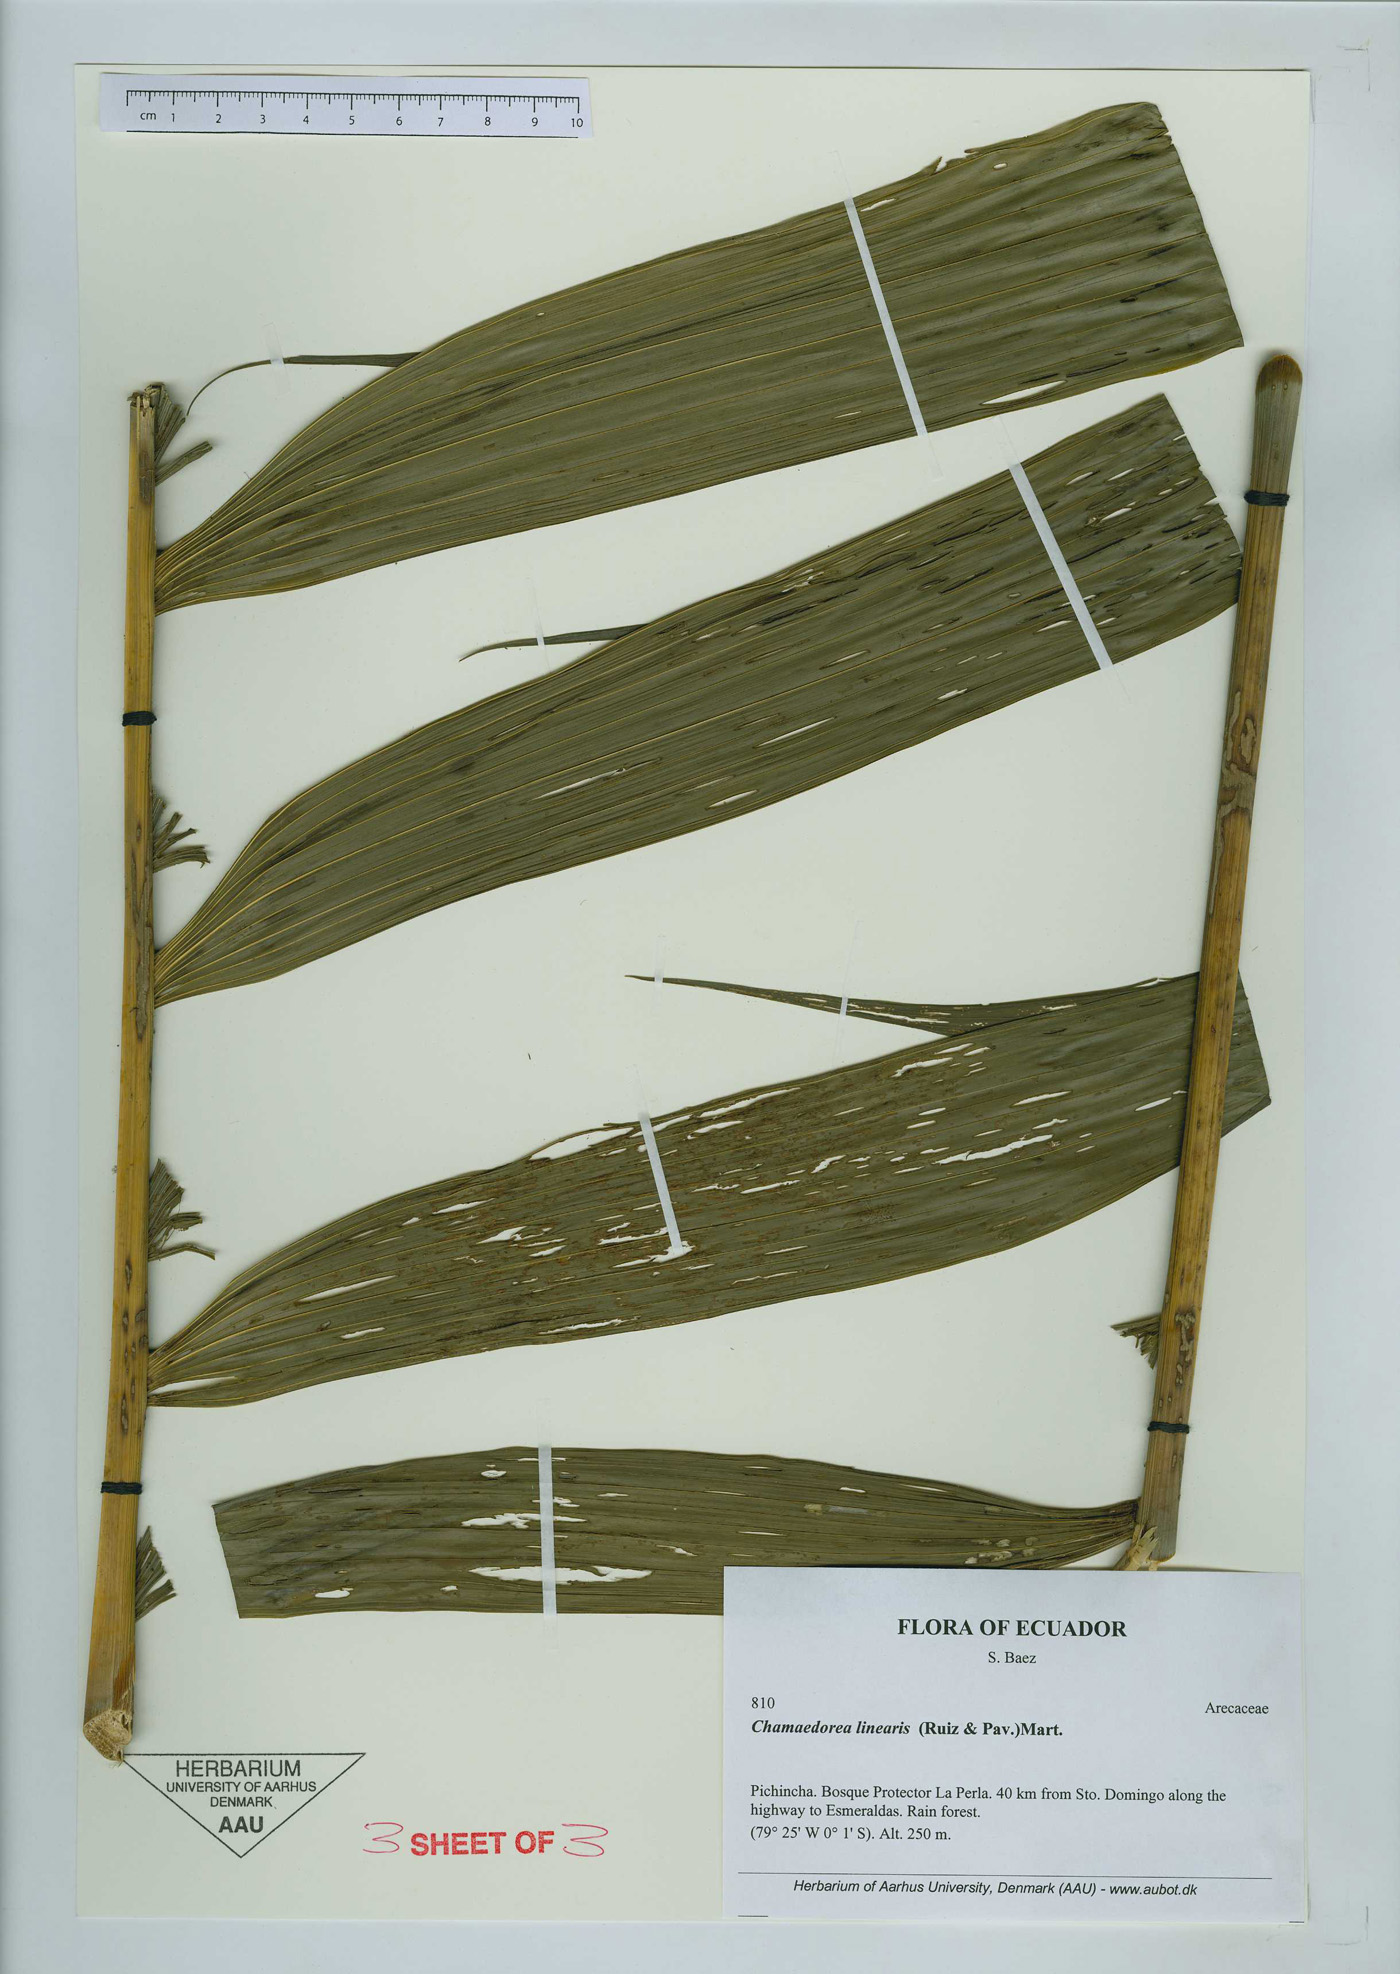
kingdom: Plantae
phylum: Tracheophyta
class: Liliopsida
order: Arecales
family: Arecaceae
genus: Chamaedorea
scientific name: Chamaedorea linearis
